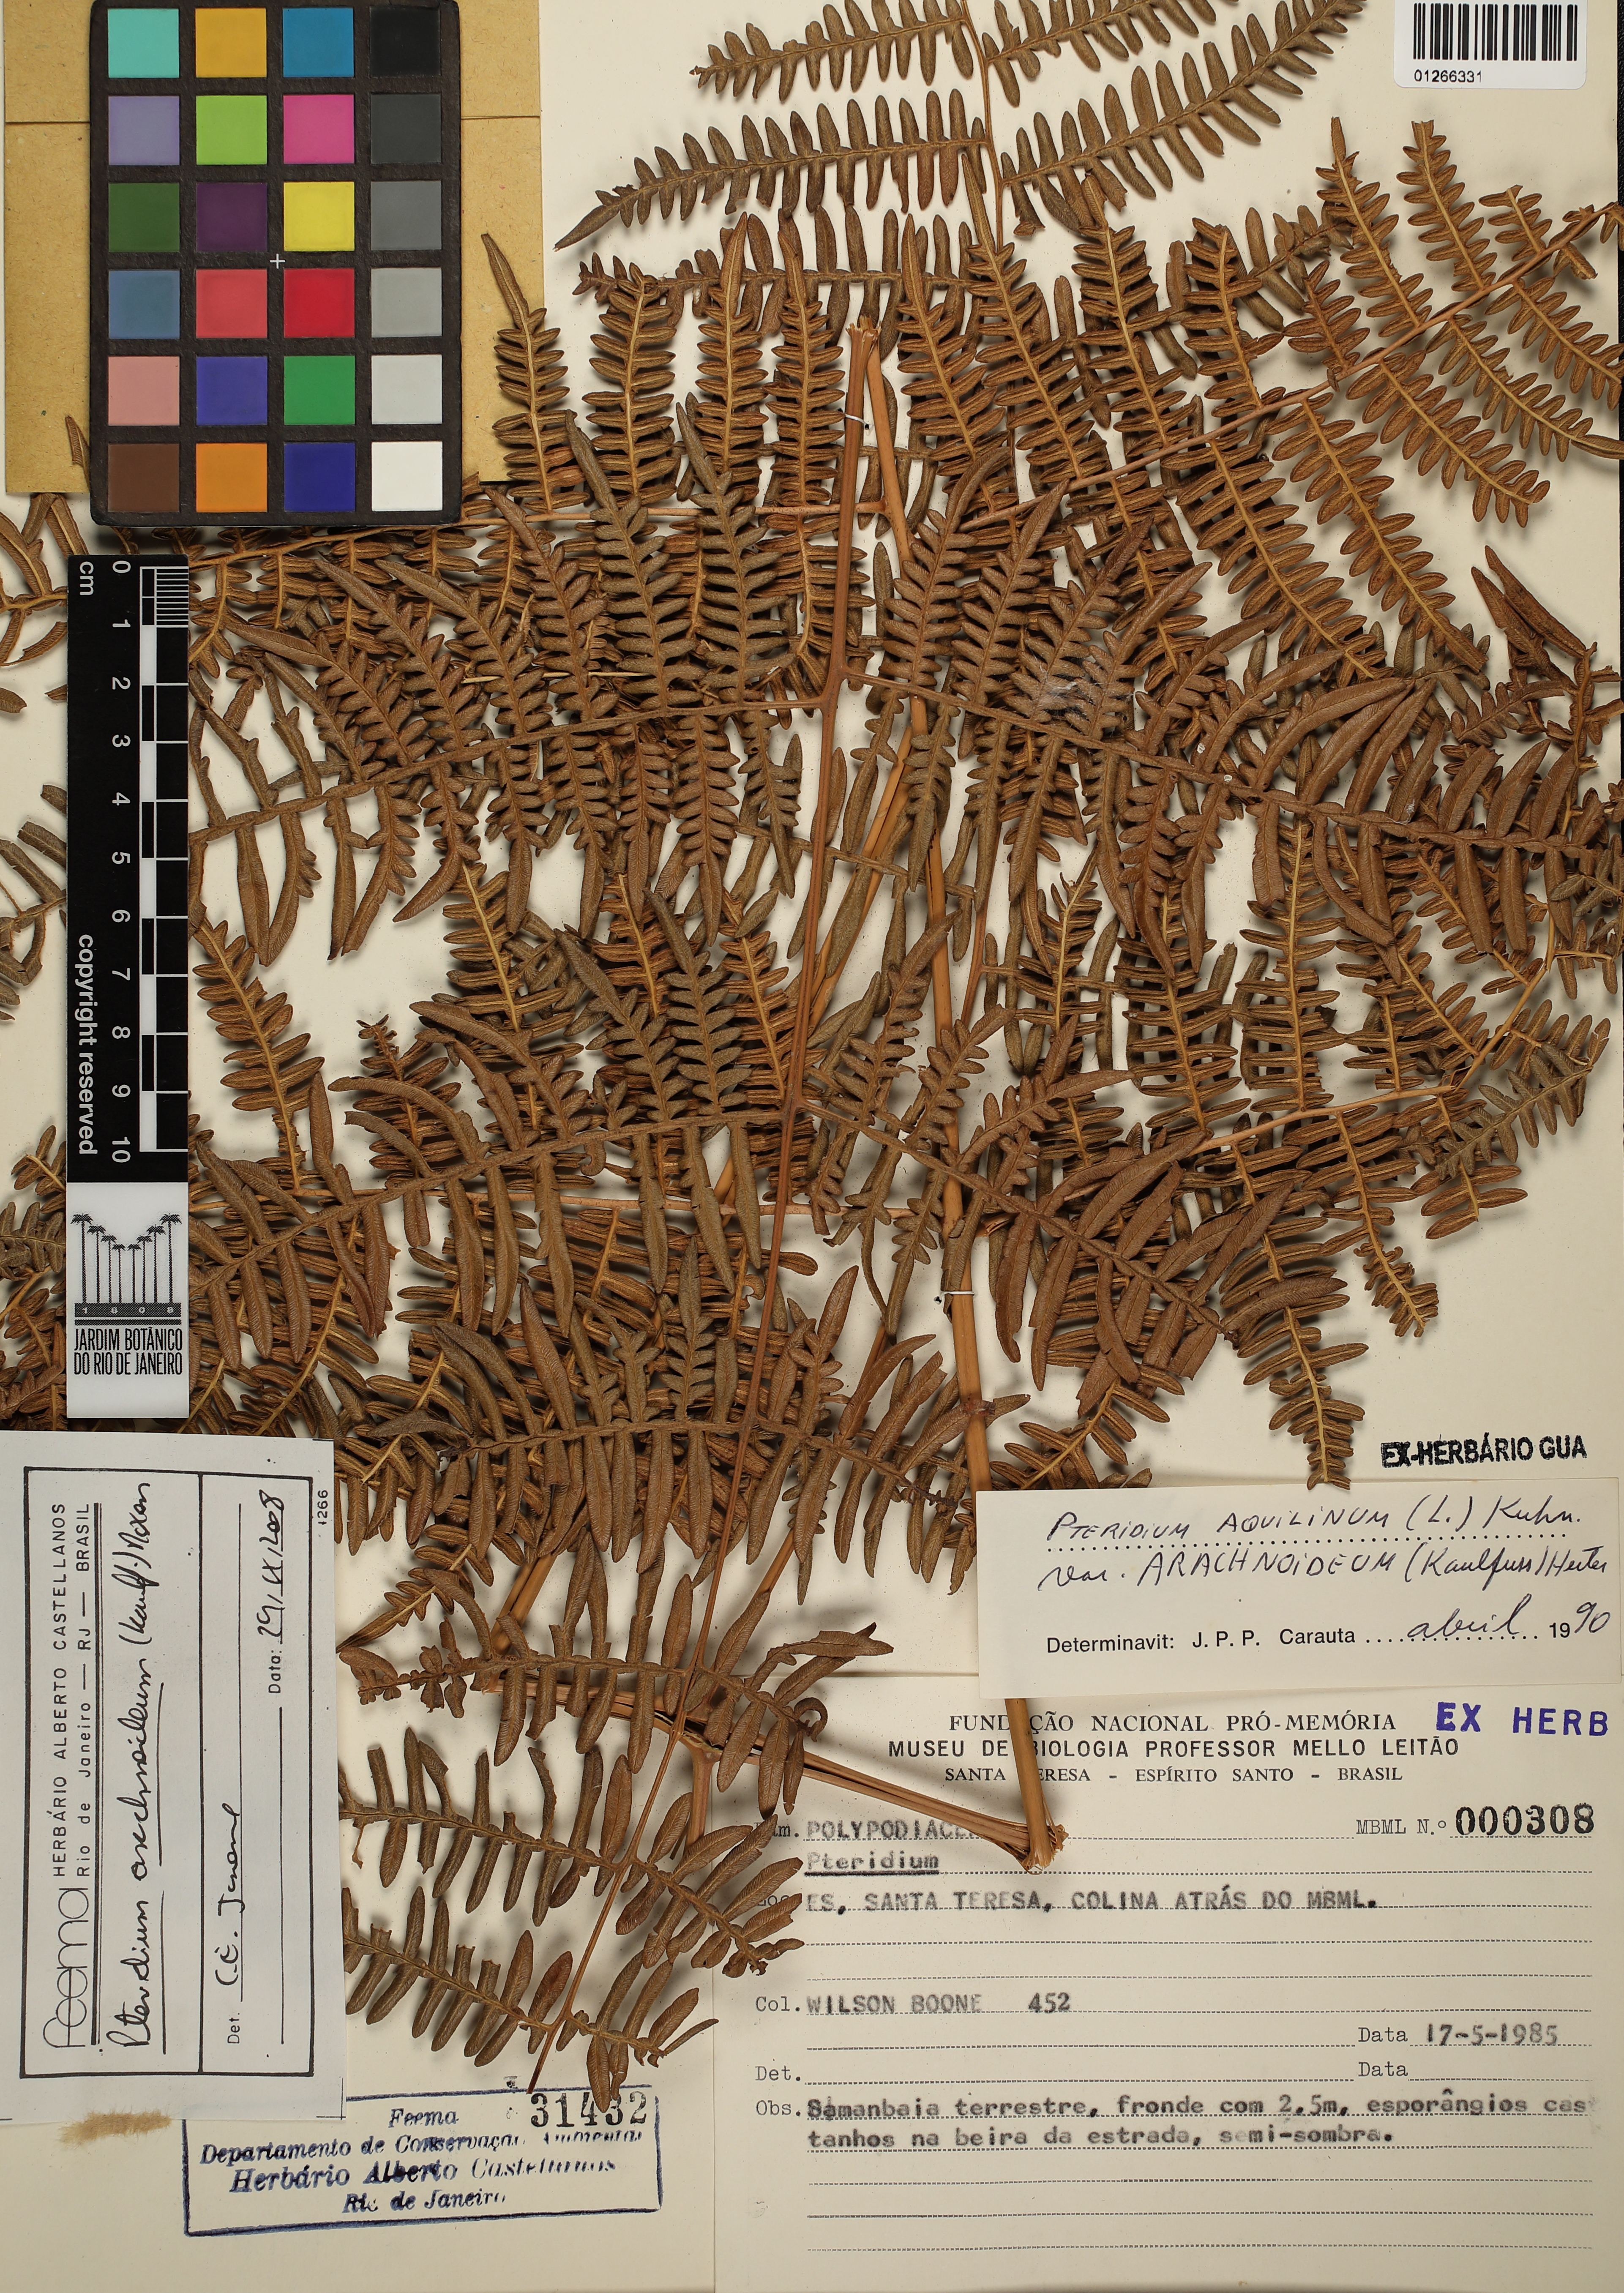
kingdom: Plantae
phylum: Tracheophyta
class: Polypodiopsida
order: Polypodiales
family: Dennstaedtiaceae
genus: Pteridium
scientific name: Pteridium esculentum
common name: Bracken fern
